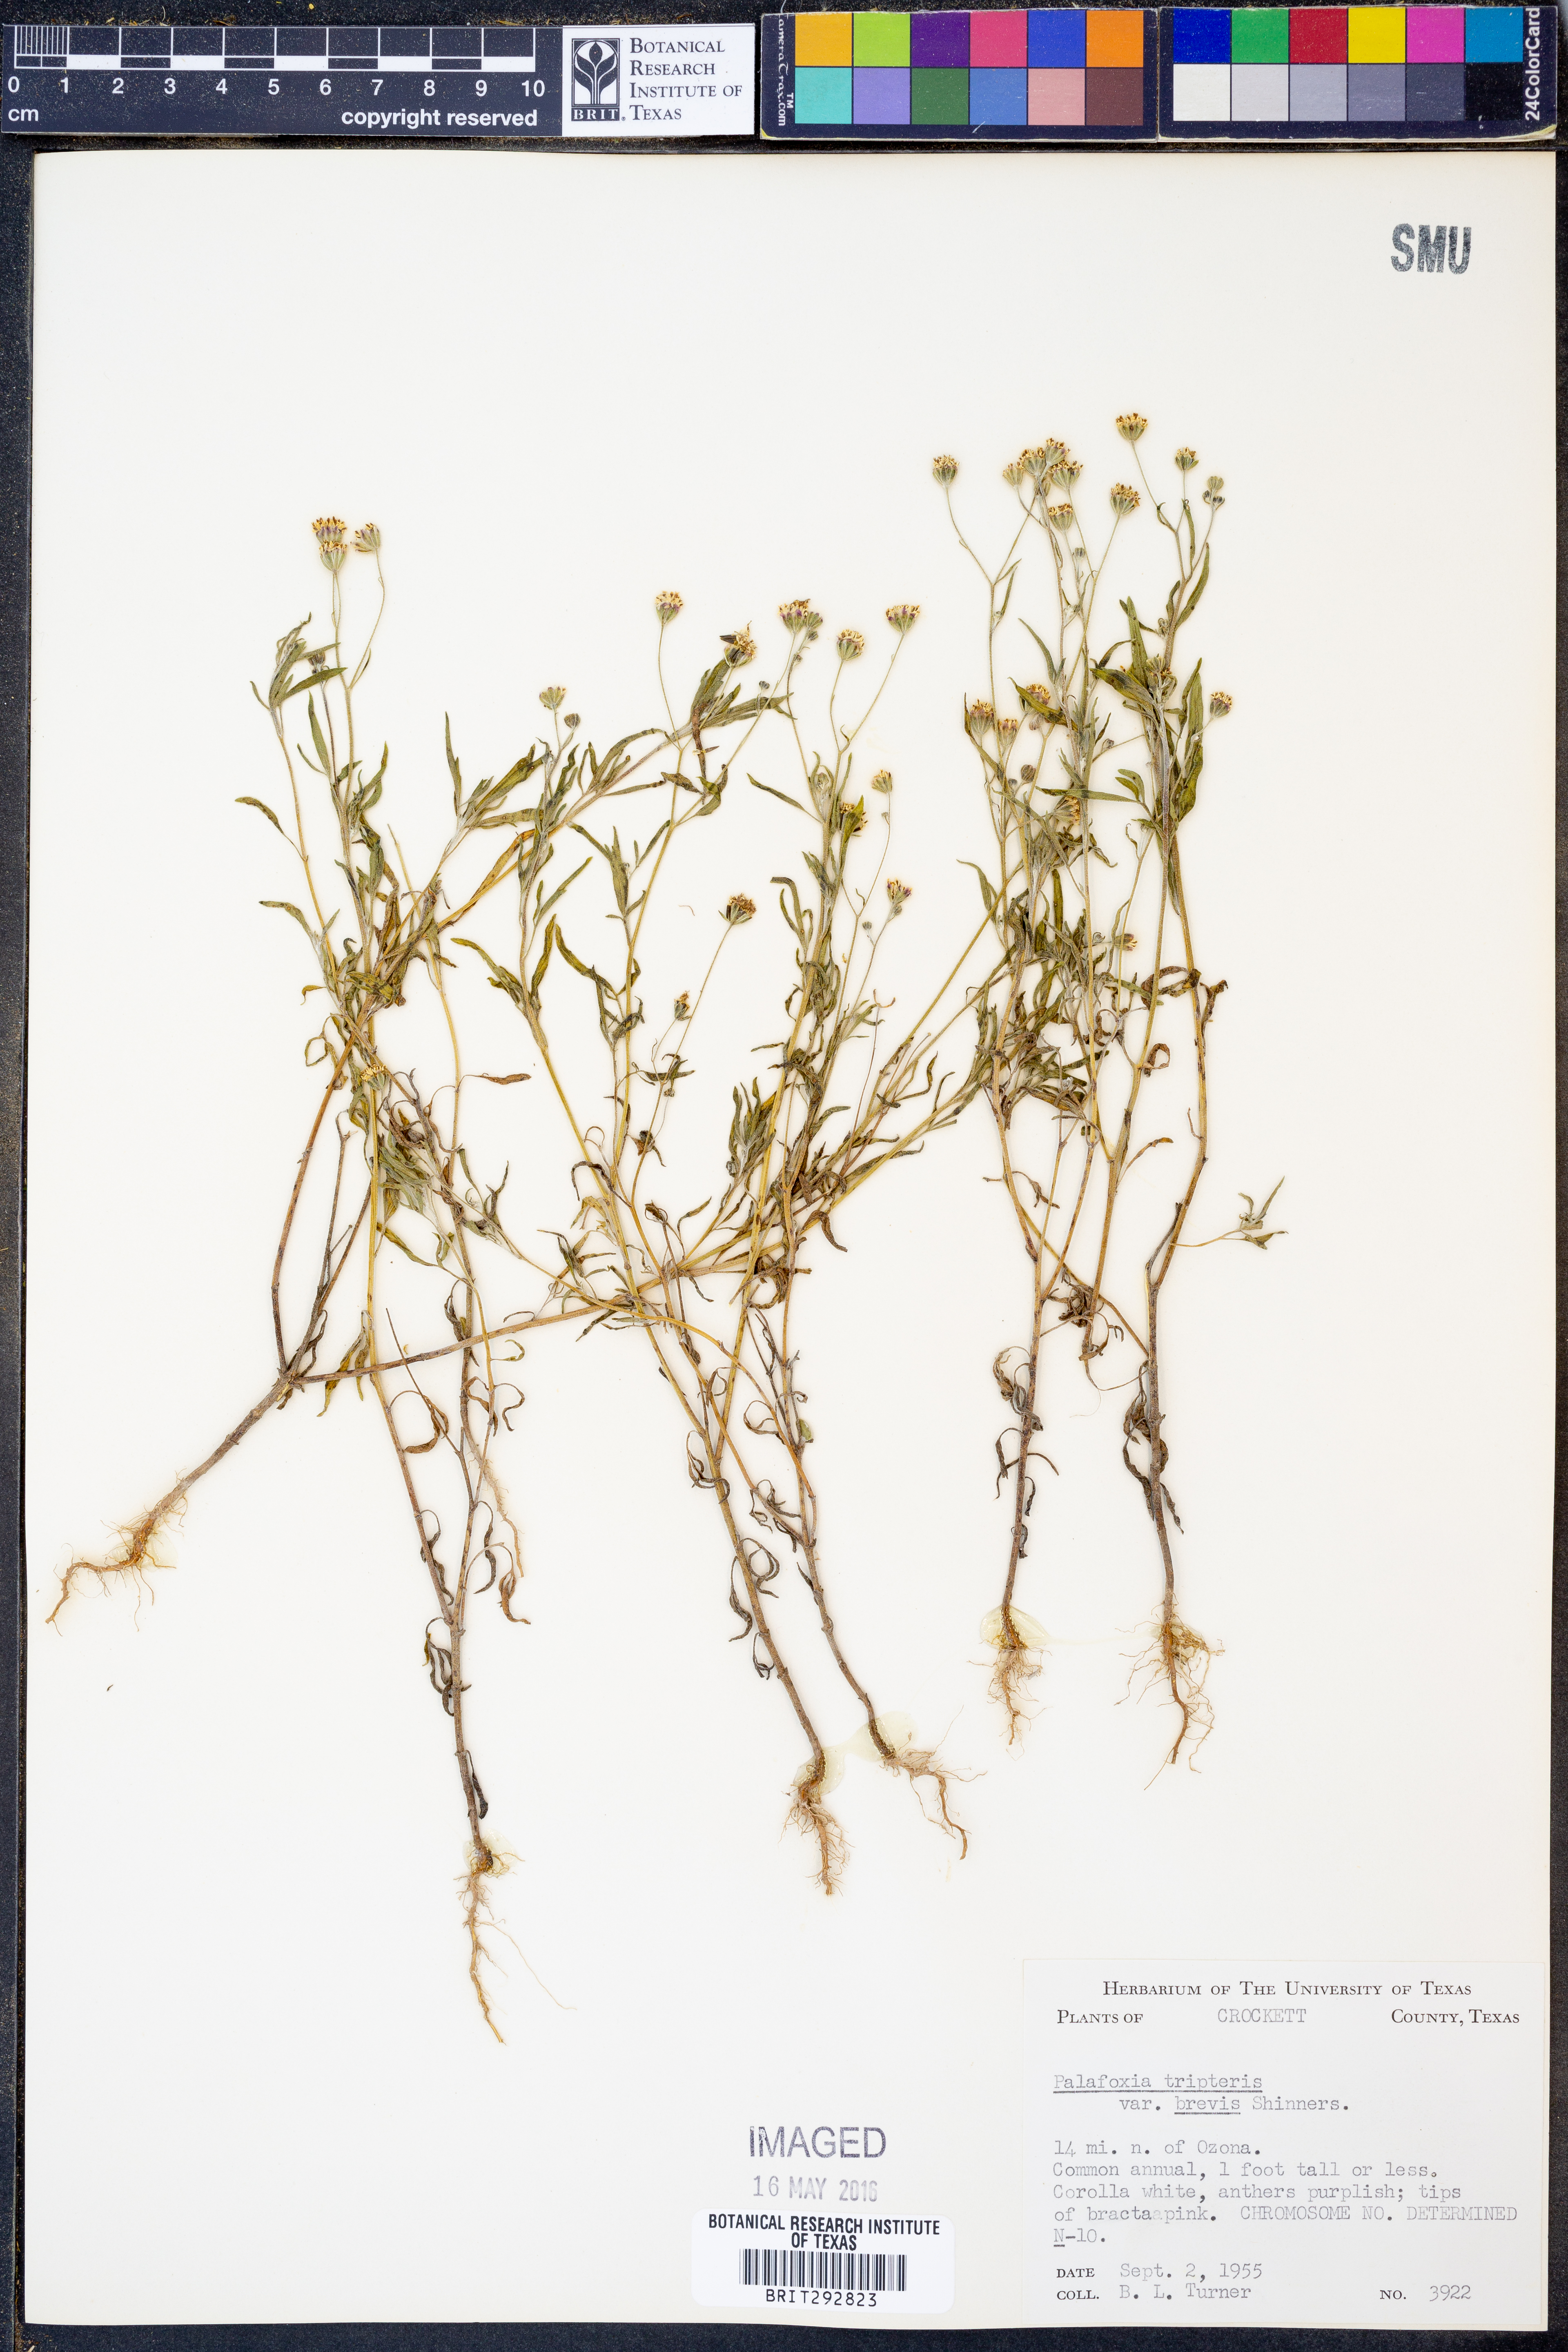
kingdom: Plantae
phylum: Tracheophyta
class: Magnoliopsida
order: Asterales
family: Asteraceae
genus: Florestina
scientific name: Florestina tripteris
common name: Sticky florestina
